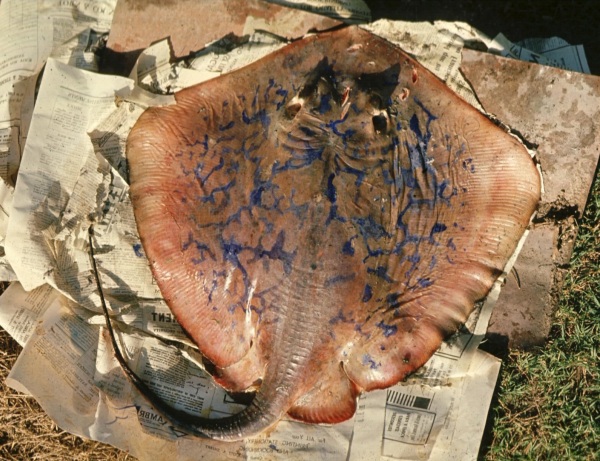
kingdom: Animalia
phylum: Chordata
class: Elasmobranchii
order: Myliobatiformes
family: Dasyatidae
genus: Dasyatis
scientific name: Dasyatis chrysonota
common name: Blue stingray
